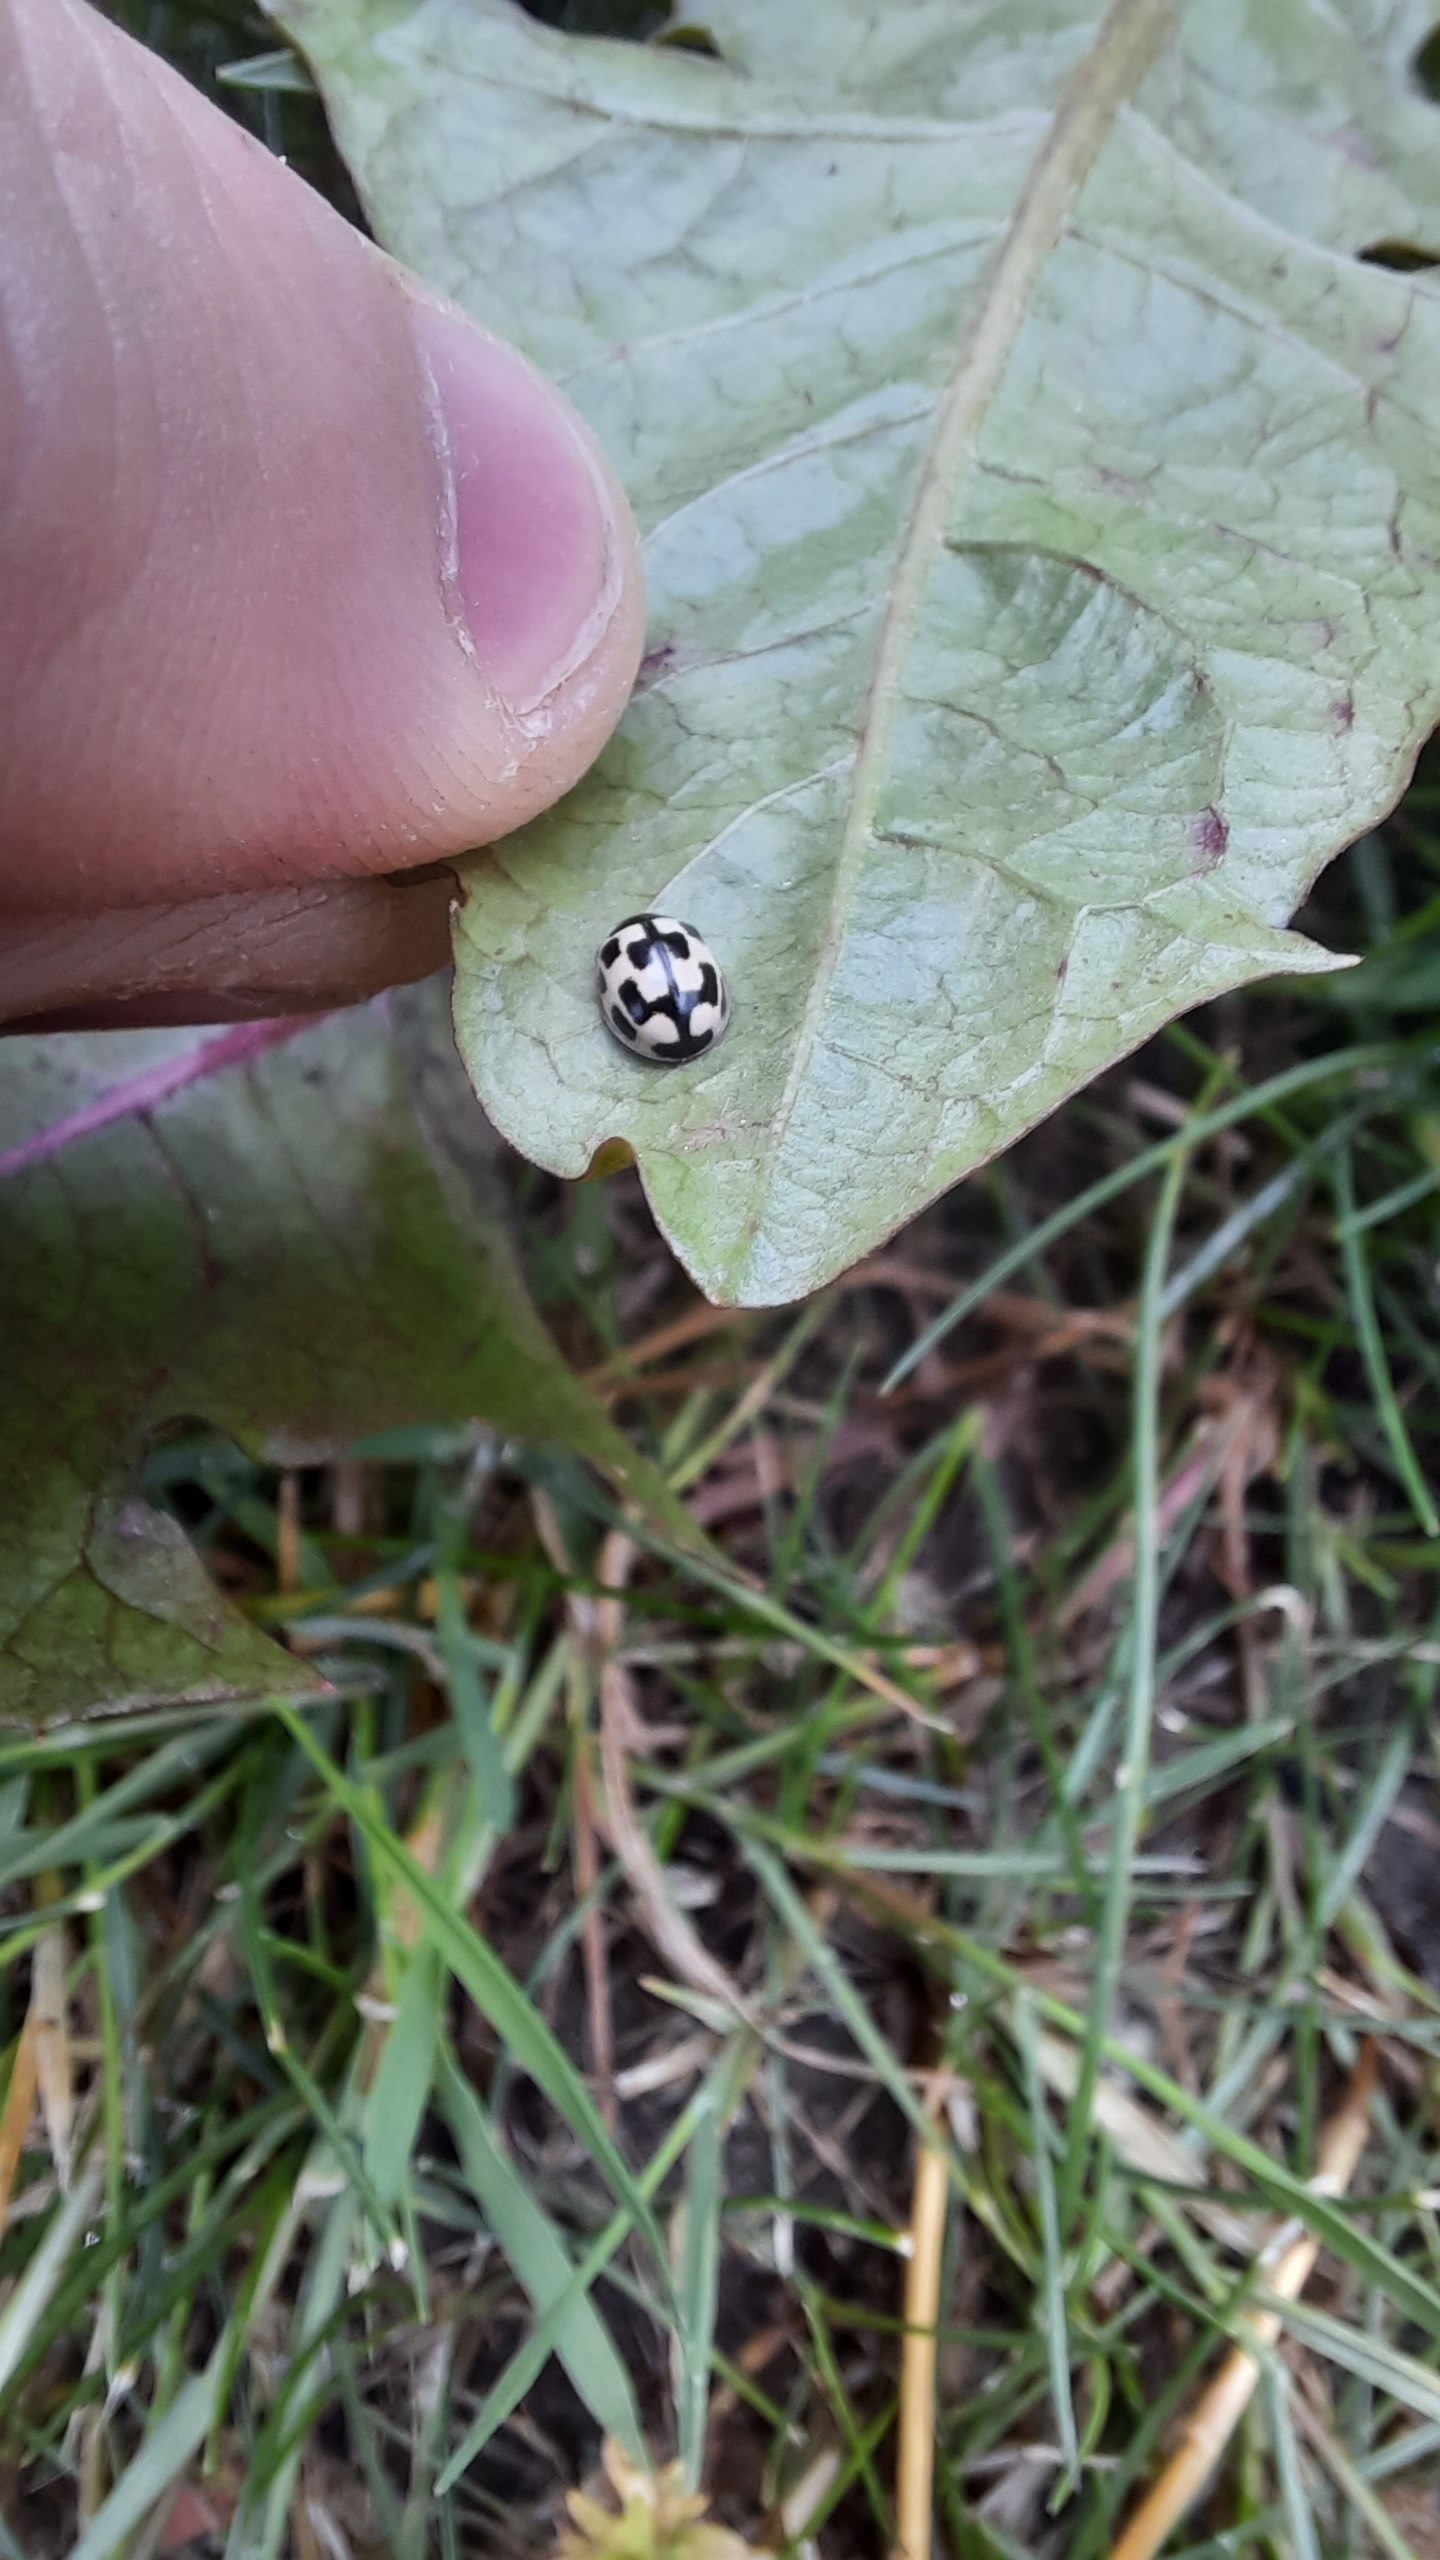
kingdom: Animalia
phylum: Arthropoda
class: Insecta
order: Coleoptera
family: Coccinellidae
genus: Propylaea
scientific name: Propylaea quatuordecimpunctata
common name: Skakbræt
